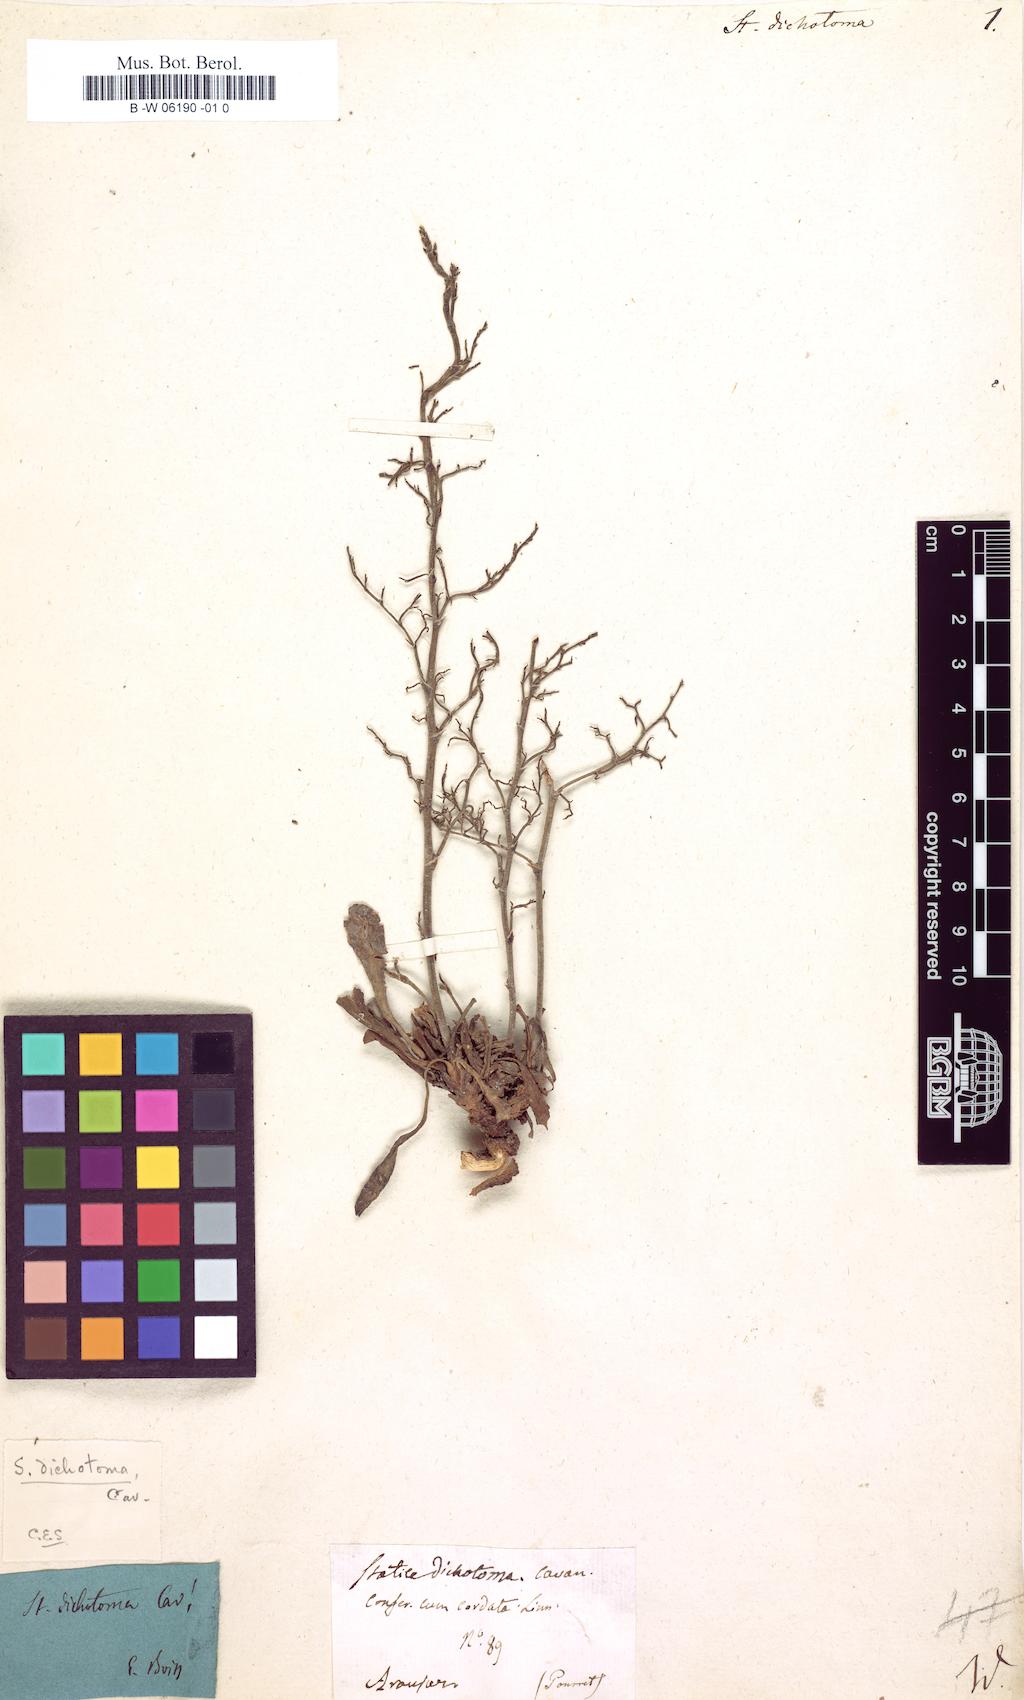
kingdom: Plantae
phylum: Tracheophyta
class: Magnoliopsida
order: Caryophyllales
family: Plumbaginaceae
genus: Limonium
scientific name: Limonium
